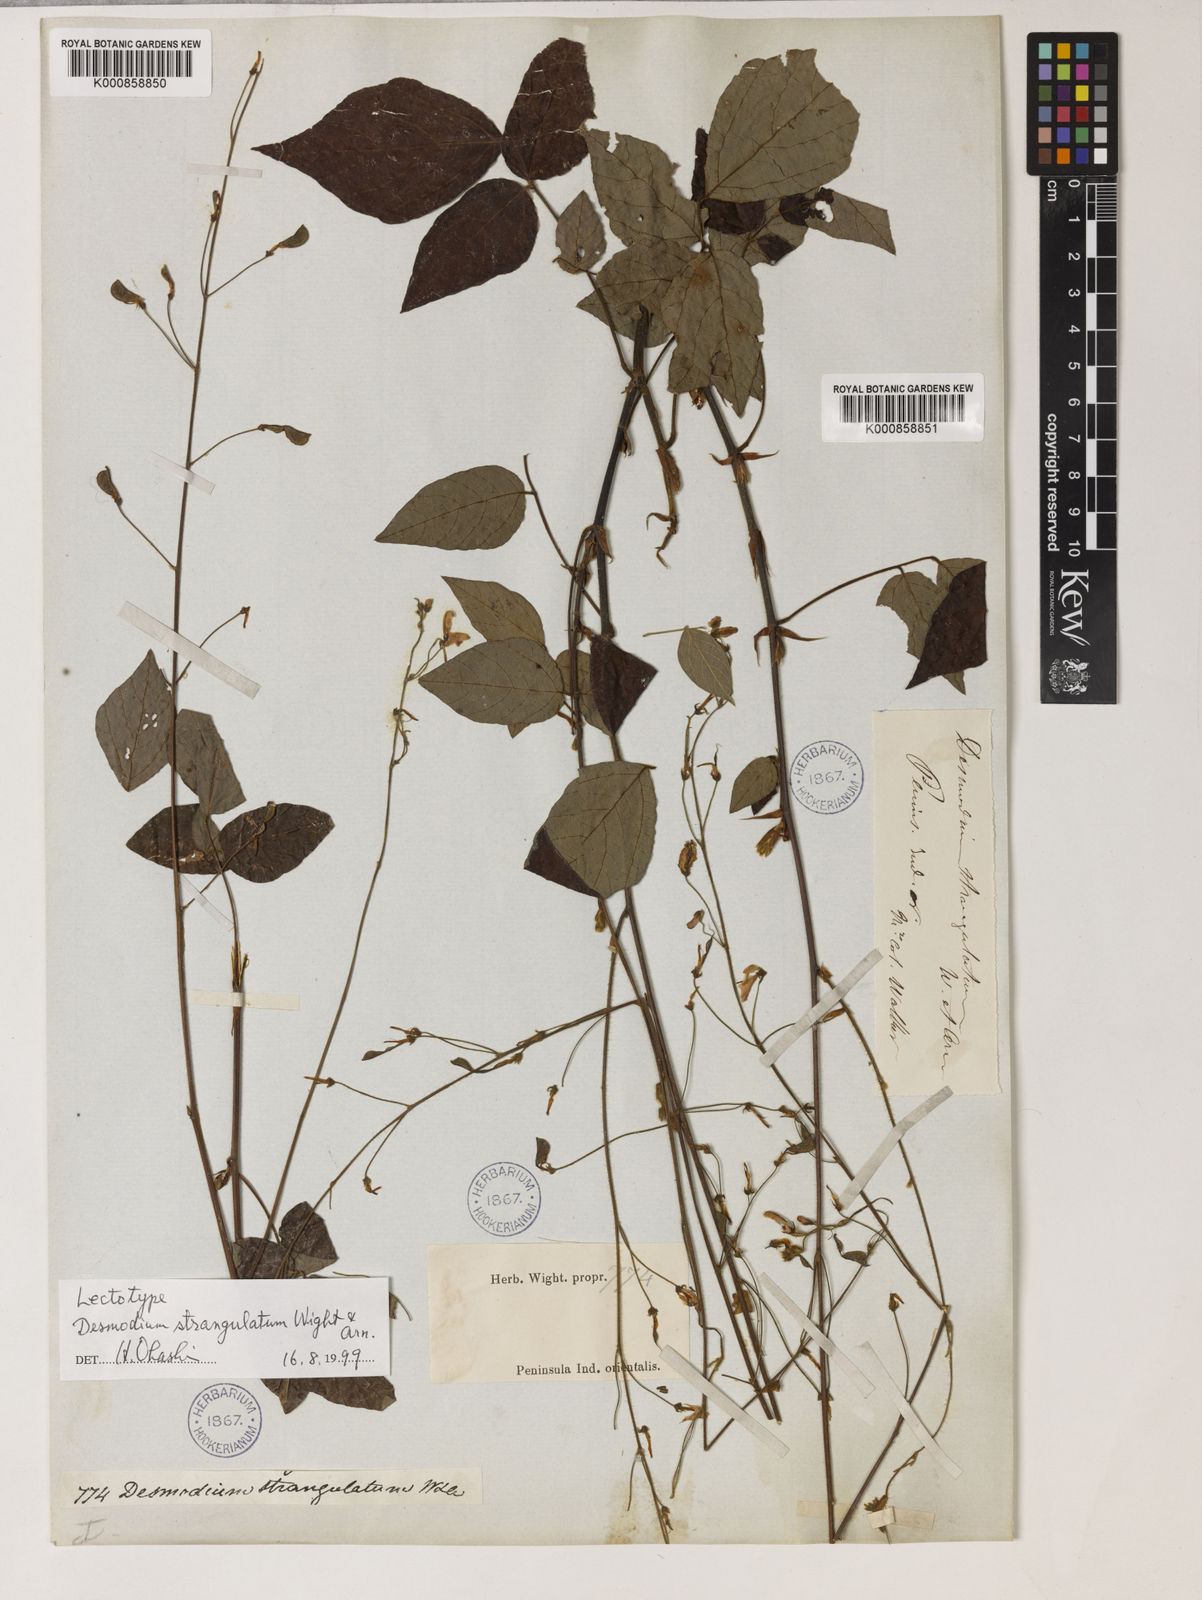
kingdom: Plantae
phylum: Tracheophyta
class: Magnoliopsida
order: Fabales
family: Fabaceae
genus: Hylodesmum
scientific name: Hylodesmum repandum
